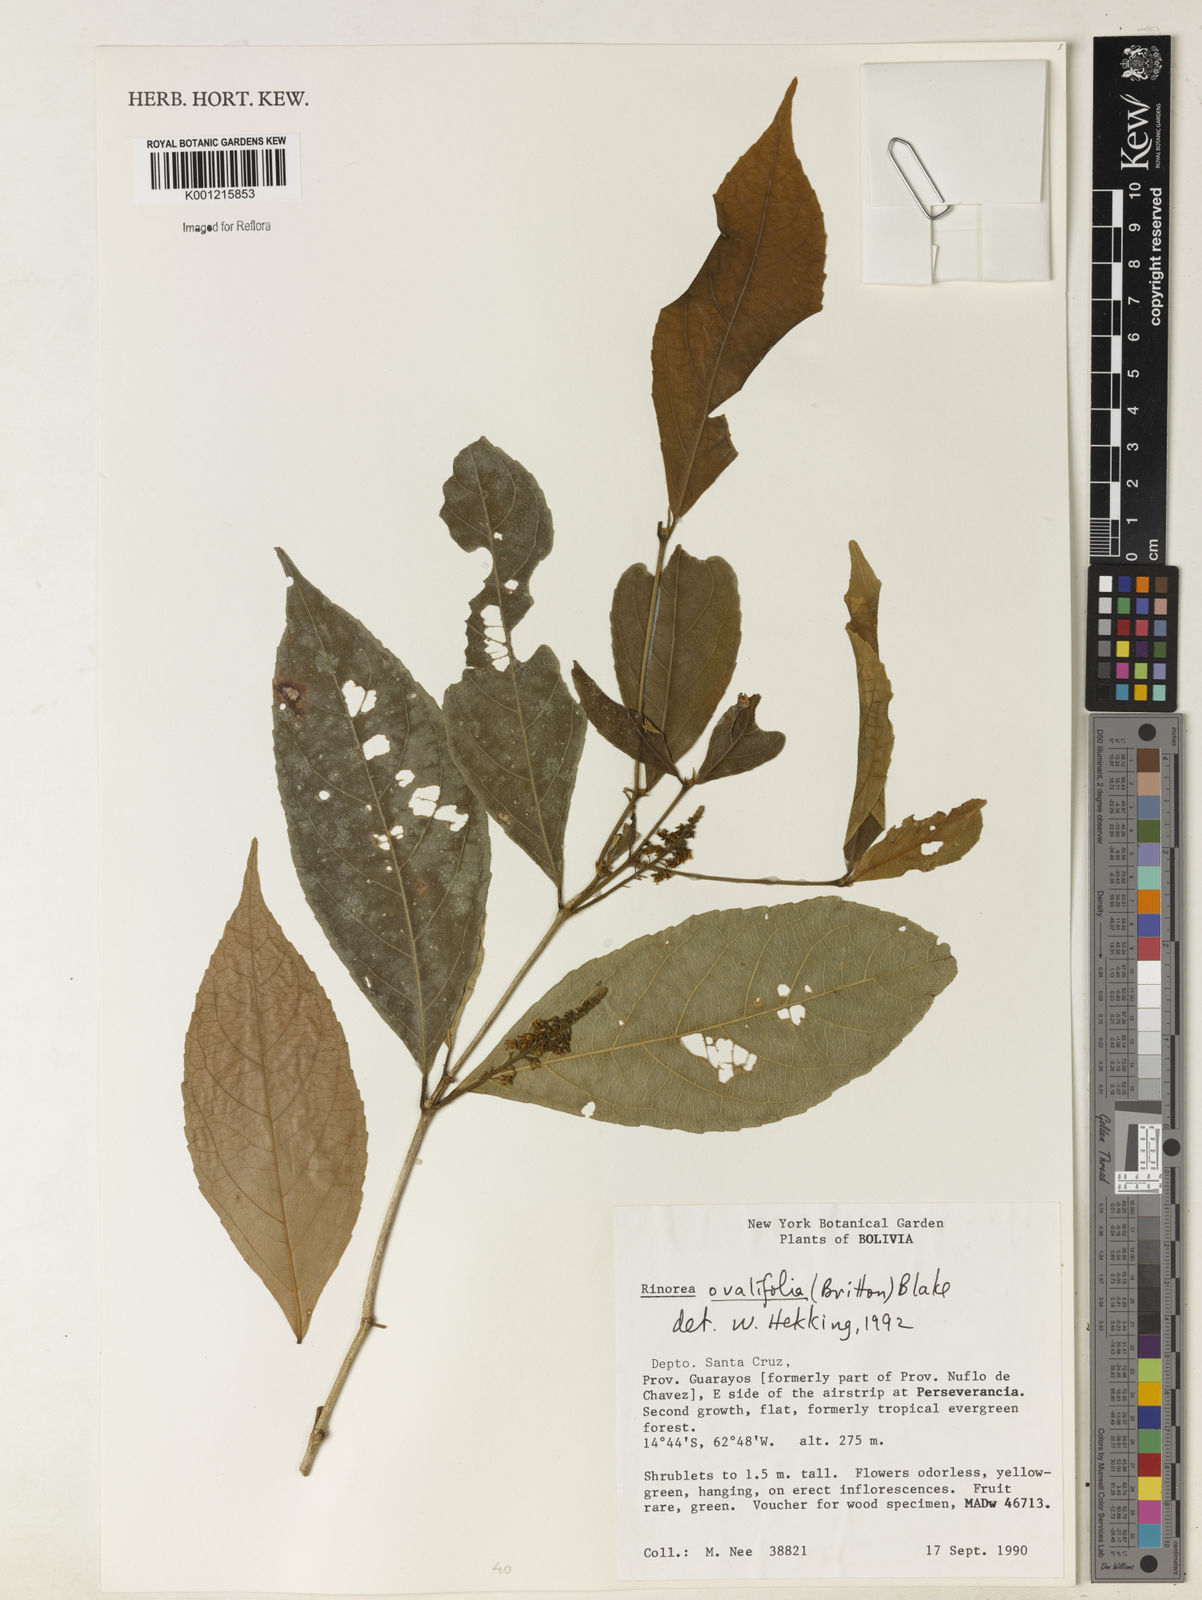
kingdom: Plantae
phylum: Tracheophyta
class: Magnoliopsida
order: Malpighiales
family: Violaceae
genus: Rinorea
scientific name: Rinorea ovalifolia
